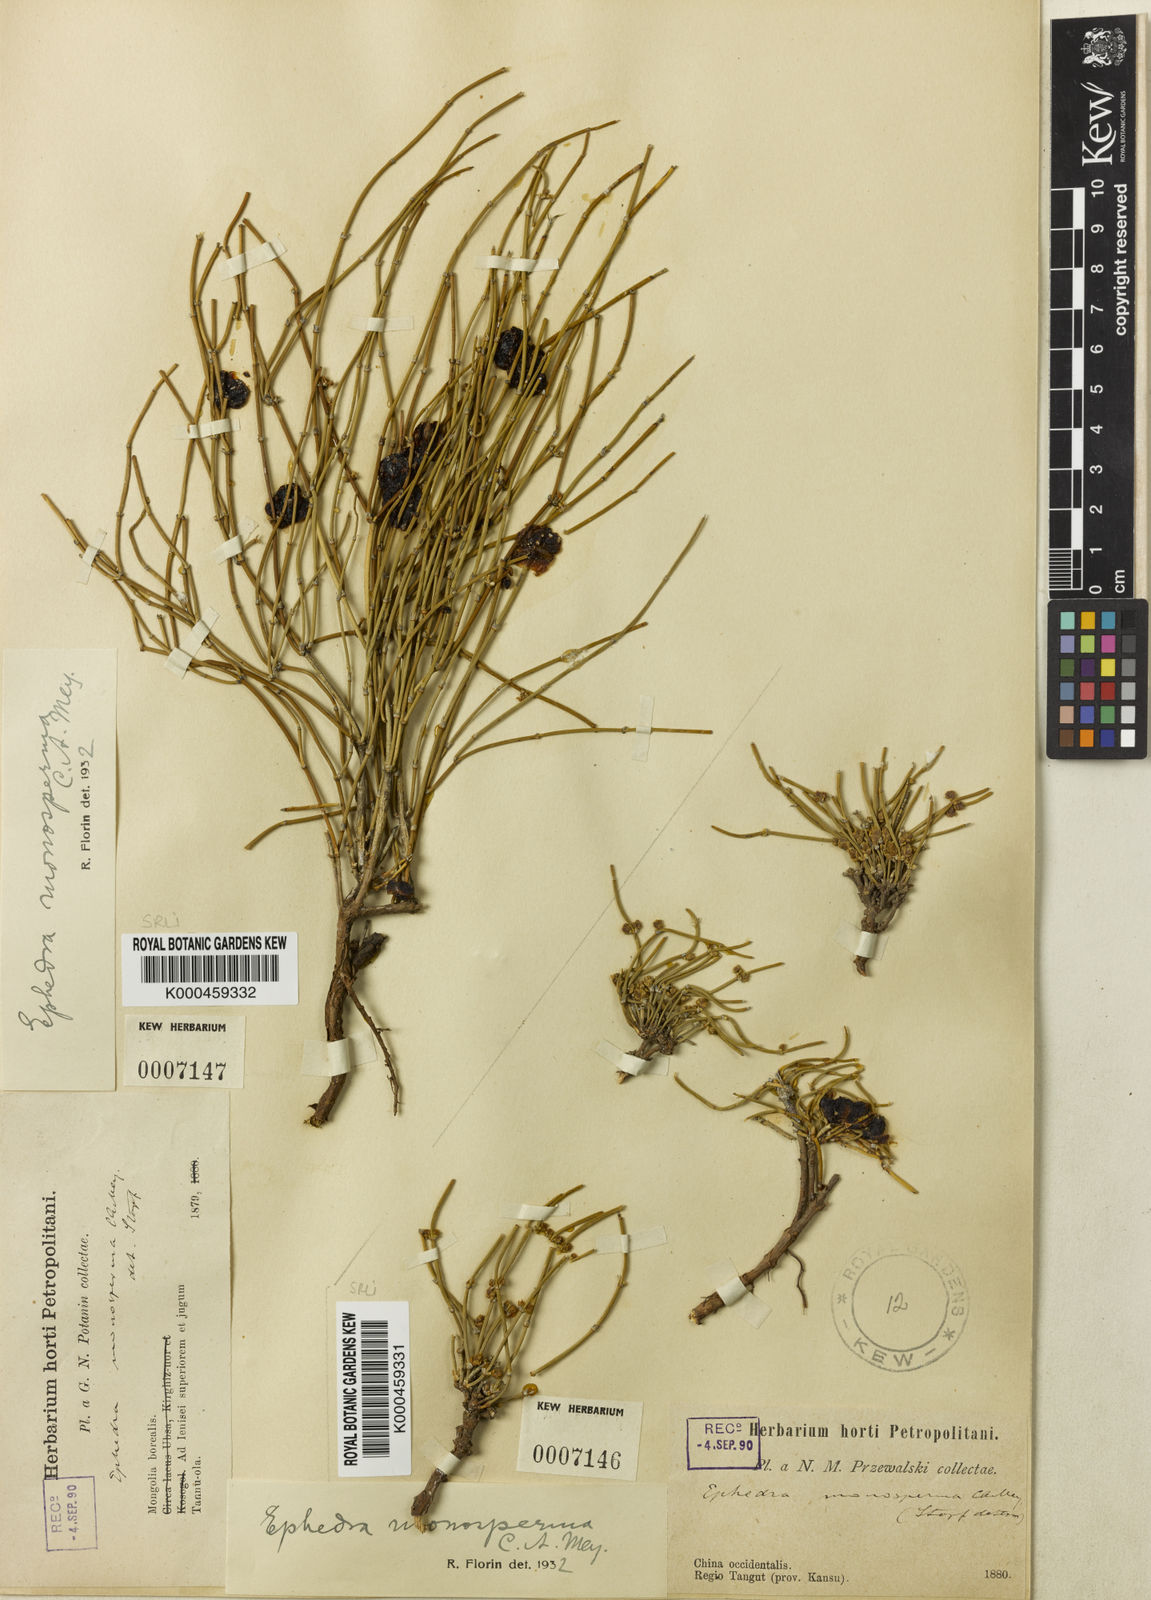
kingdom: Plantae
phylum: Tracheophyta
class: Gnetopsida
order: Ephedrales
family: Ephedraceae
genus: Ephedra
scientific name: Ephedra monosperma
